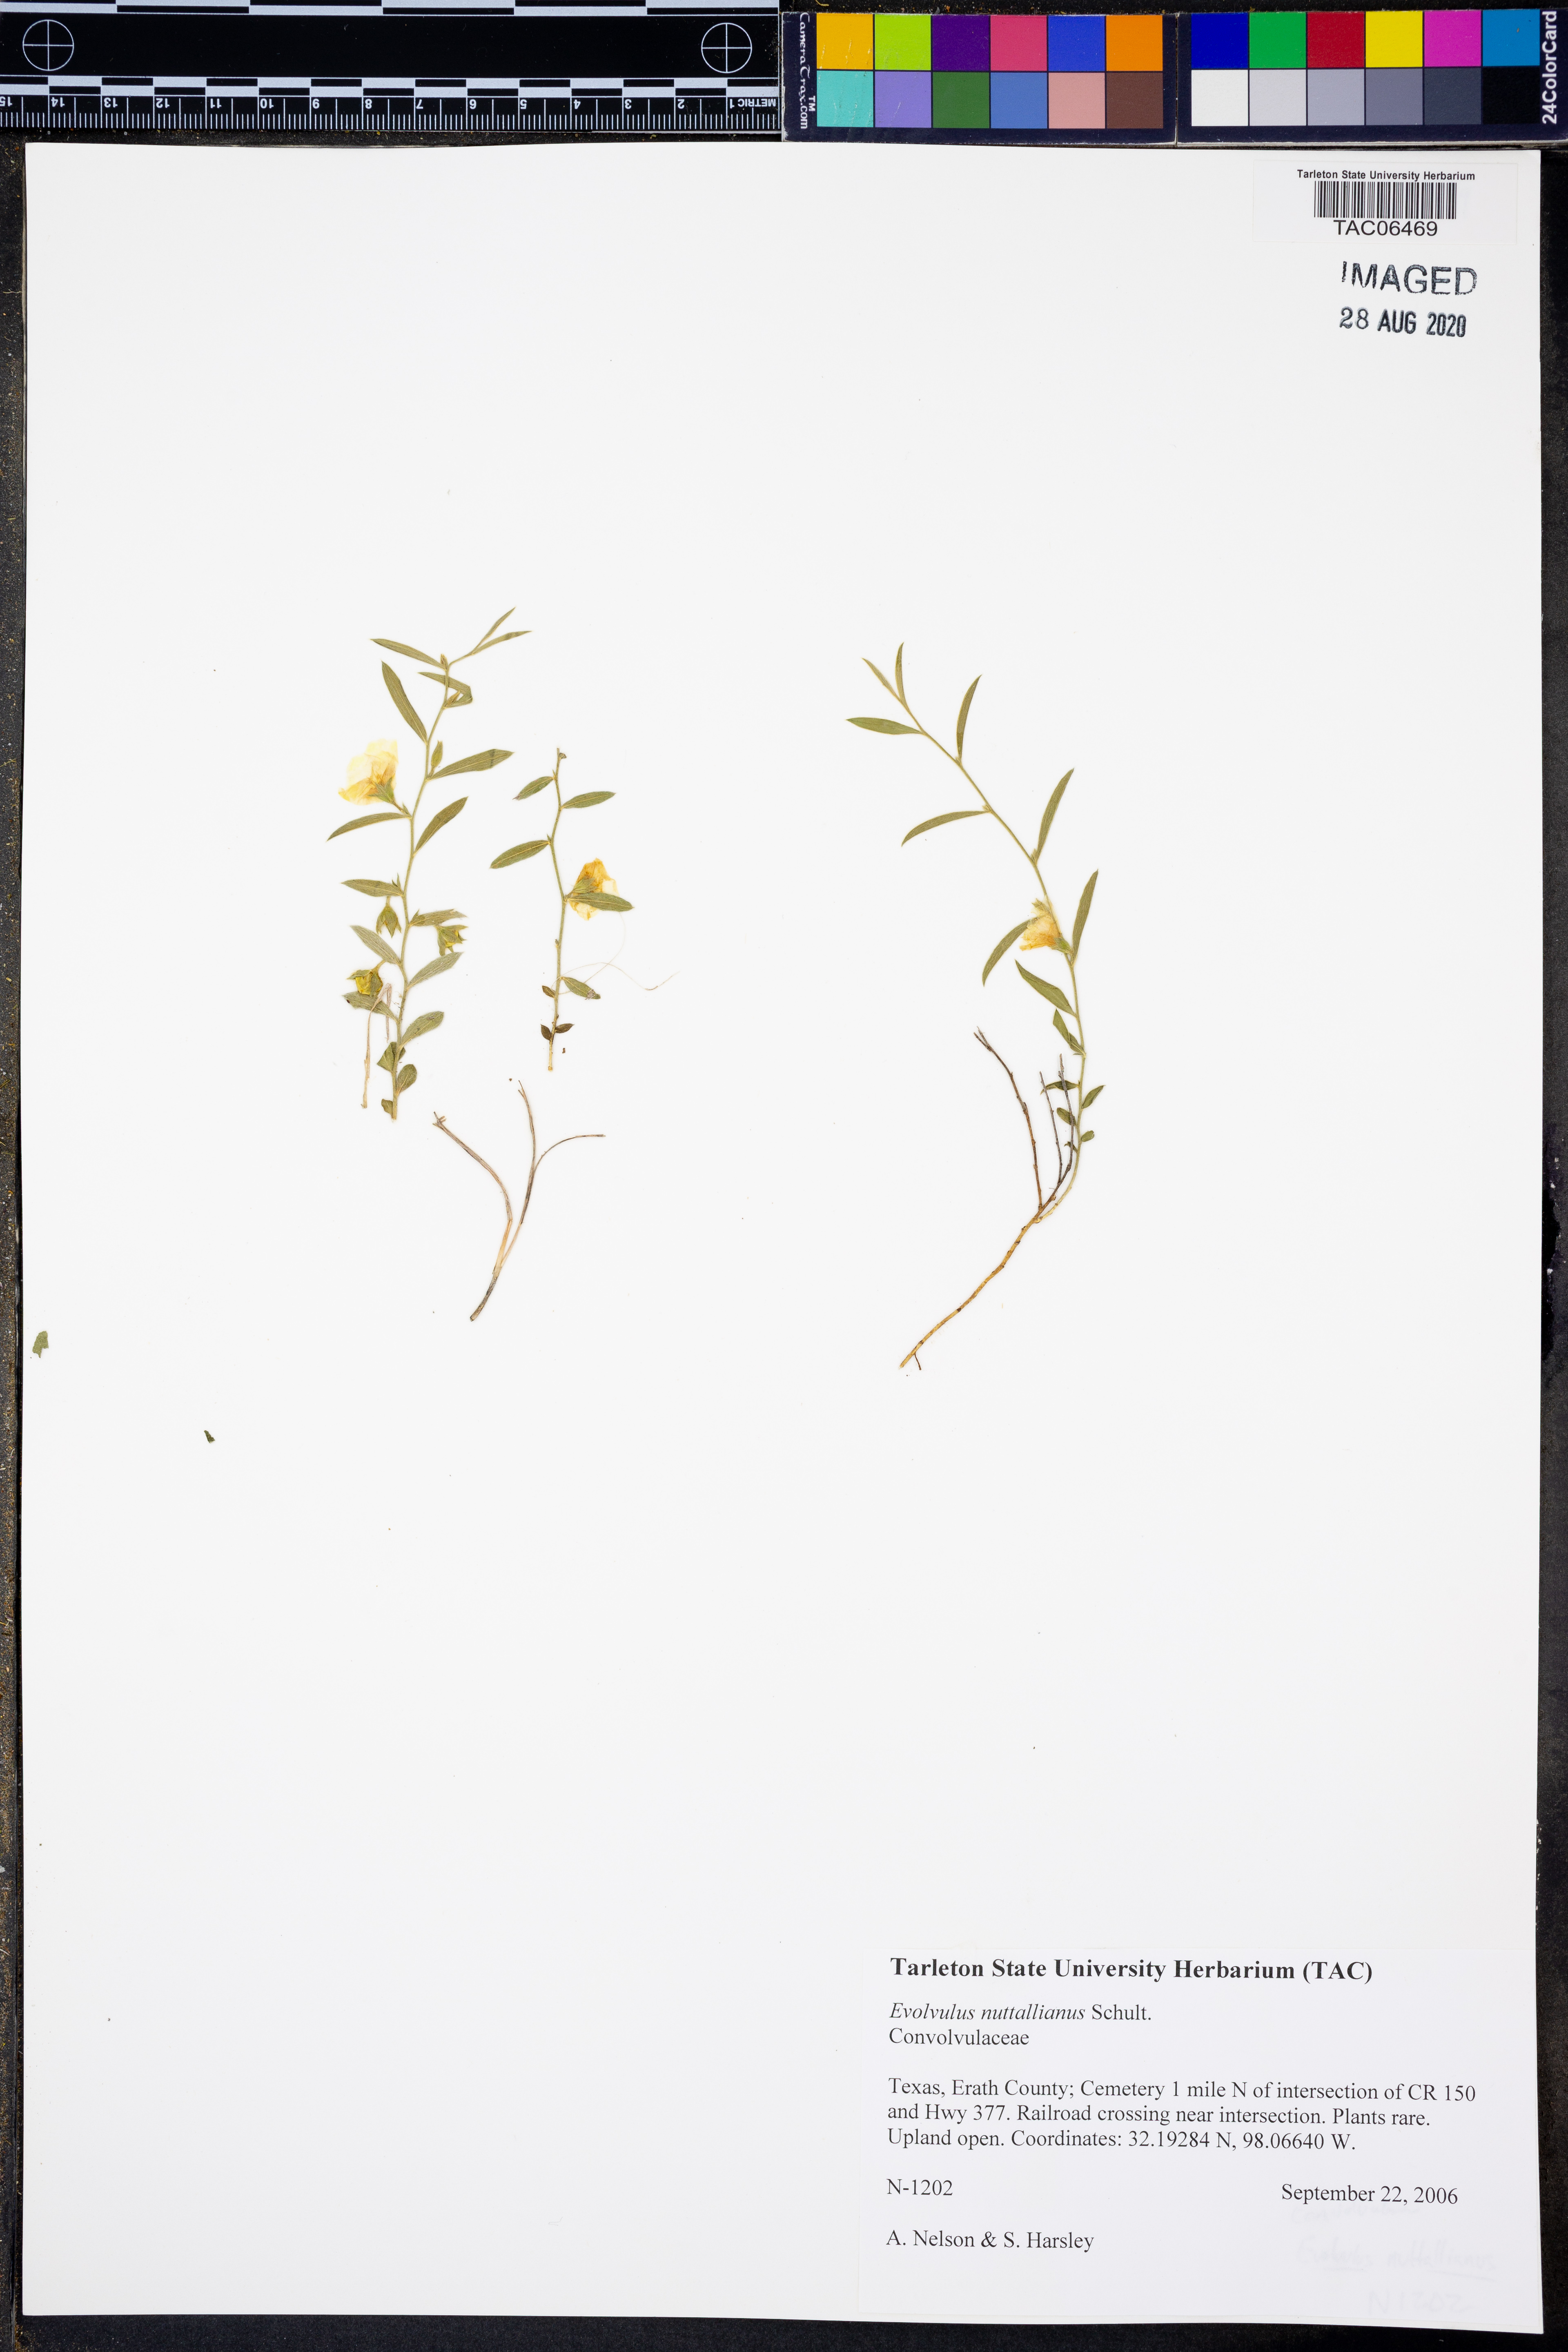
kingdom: Plantae
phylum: Tracheophyta
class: Magnoliopsida
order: Solanales
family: Convolvulaceae
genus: Evolvulus
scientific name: Evolvulus nuttallianus
